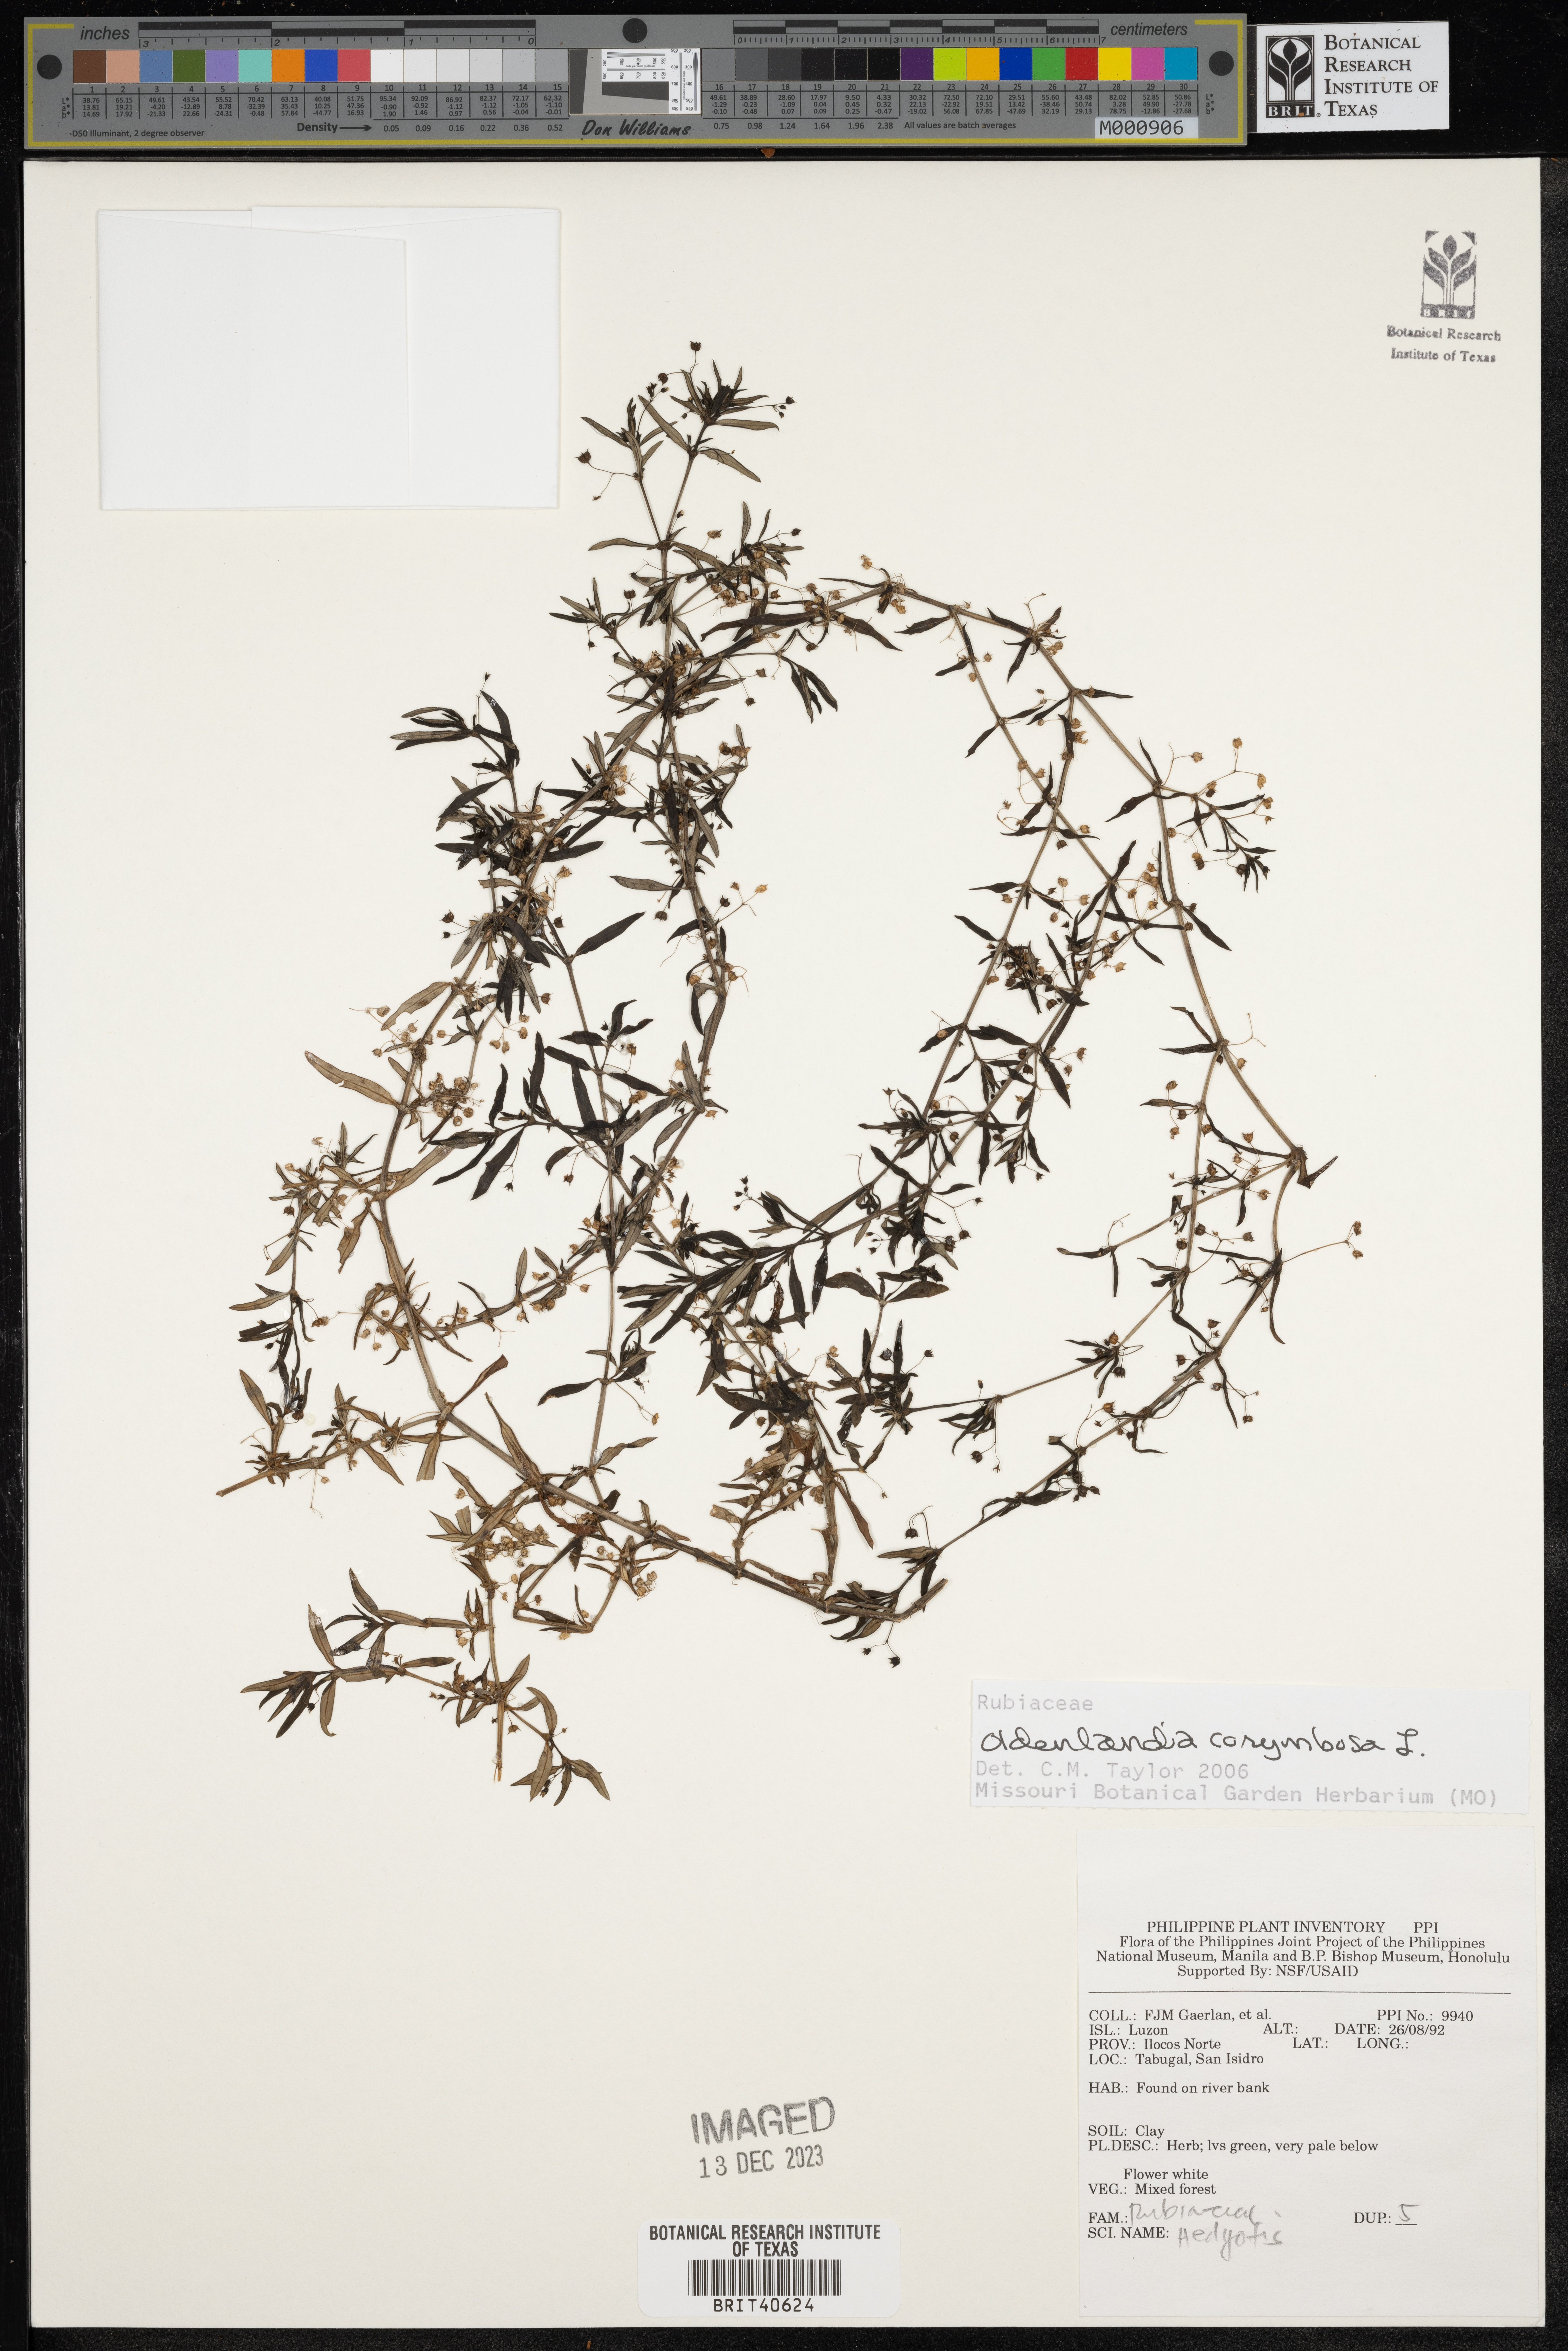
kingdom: Plantae
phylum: Tracheophyta
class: Magnoliopsida
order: Gentianales
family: Rubiaceae
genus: Oldenlandia
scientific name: Oldenlandia corymbosa
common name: Flat-top mille graines
